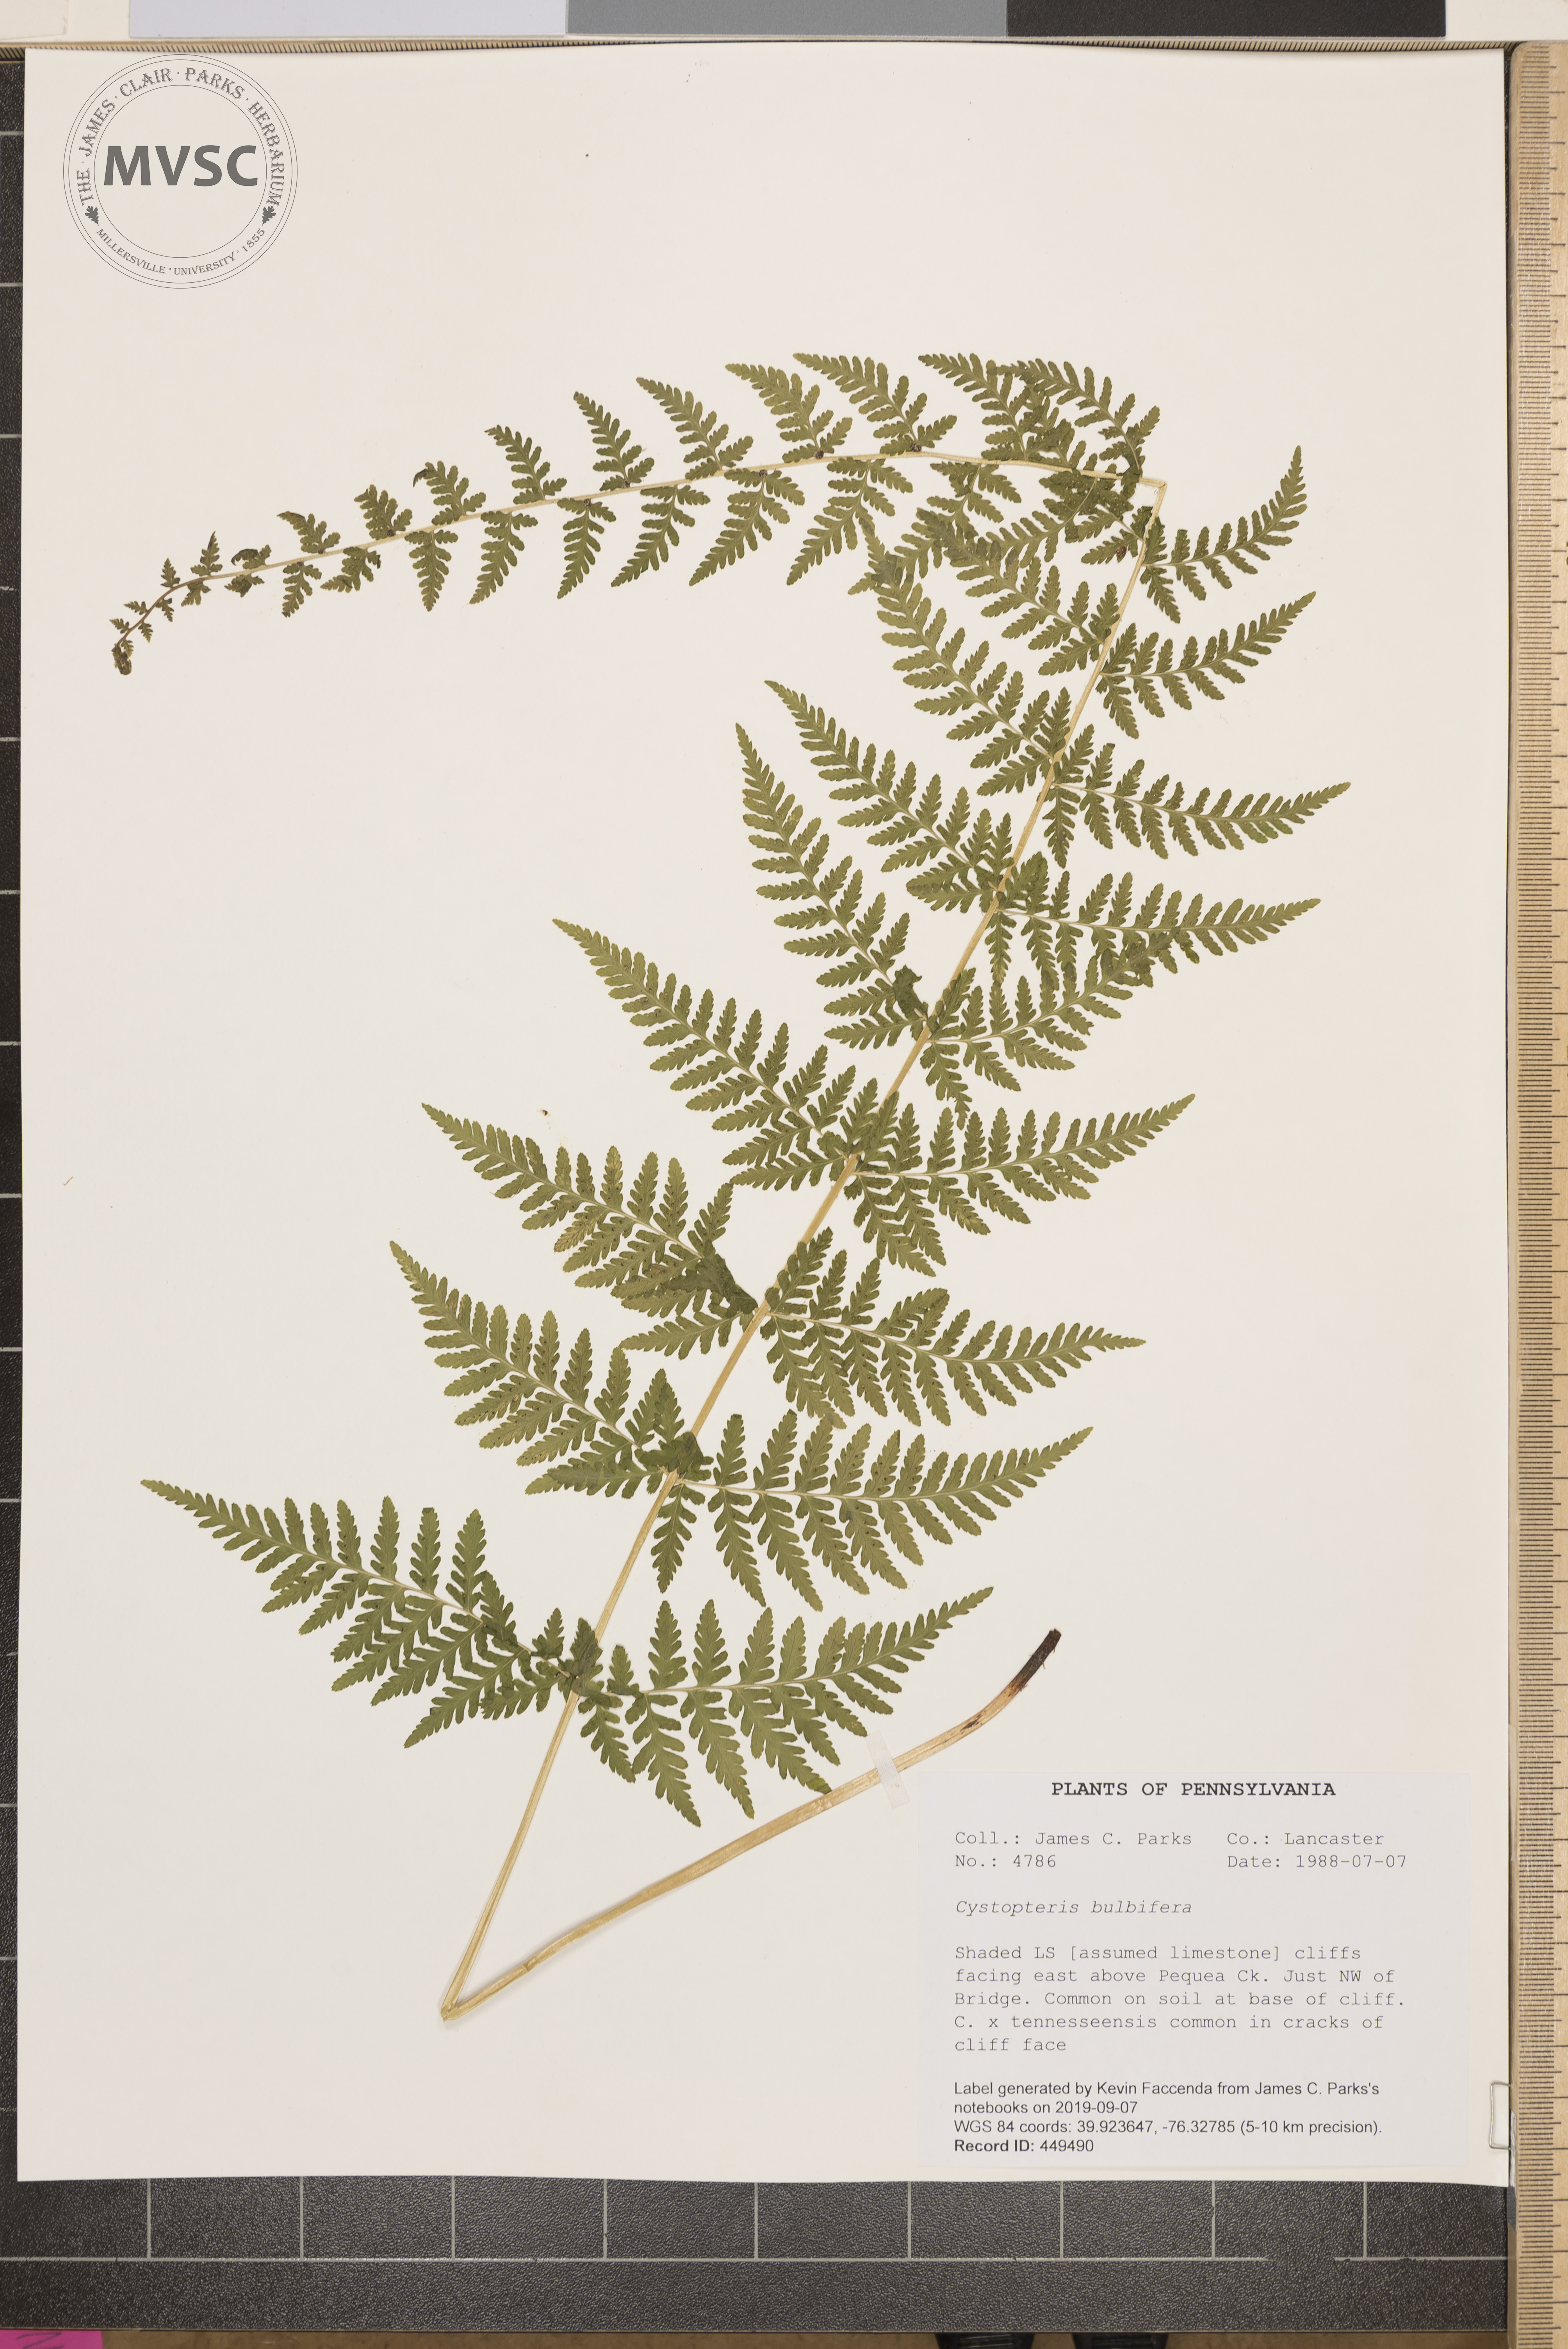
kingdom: Plantae
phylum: Tracheophyta
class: Polypodiopsida
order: Polypodiales
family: Cystopteridaceae
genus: Cystopteris
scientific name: Cystopteris bulbifera
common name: Bulblet bladder fern
